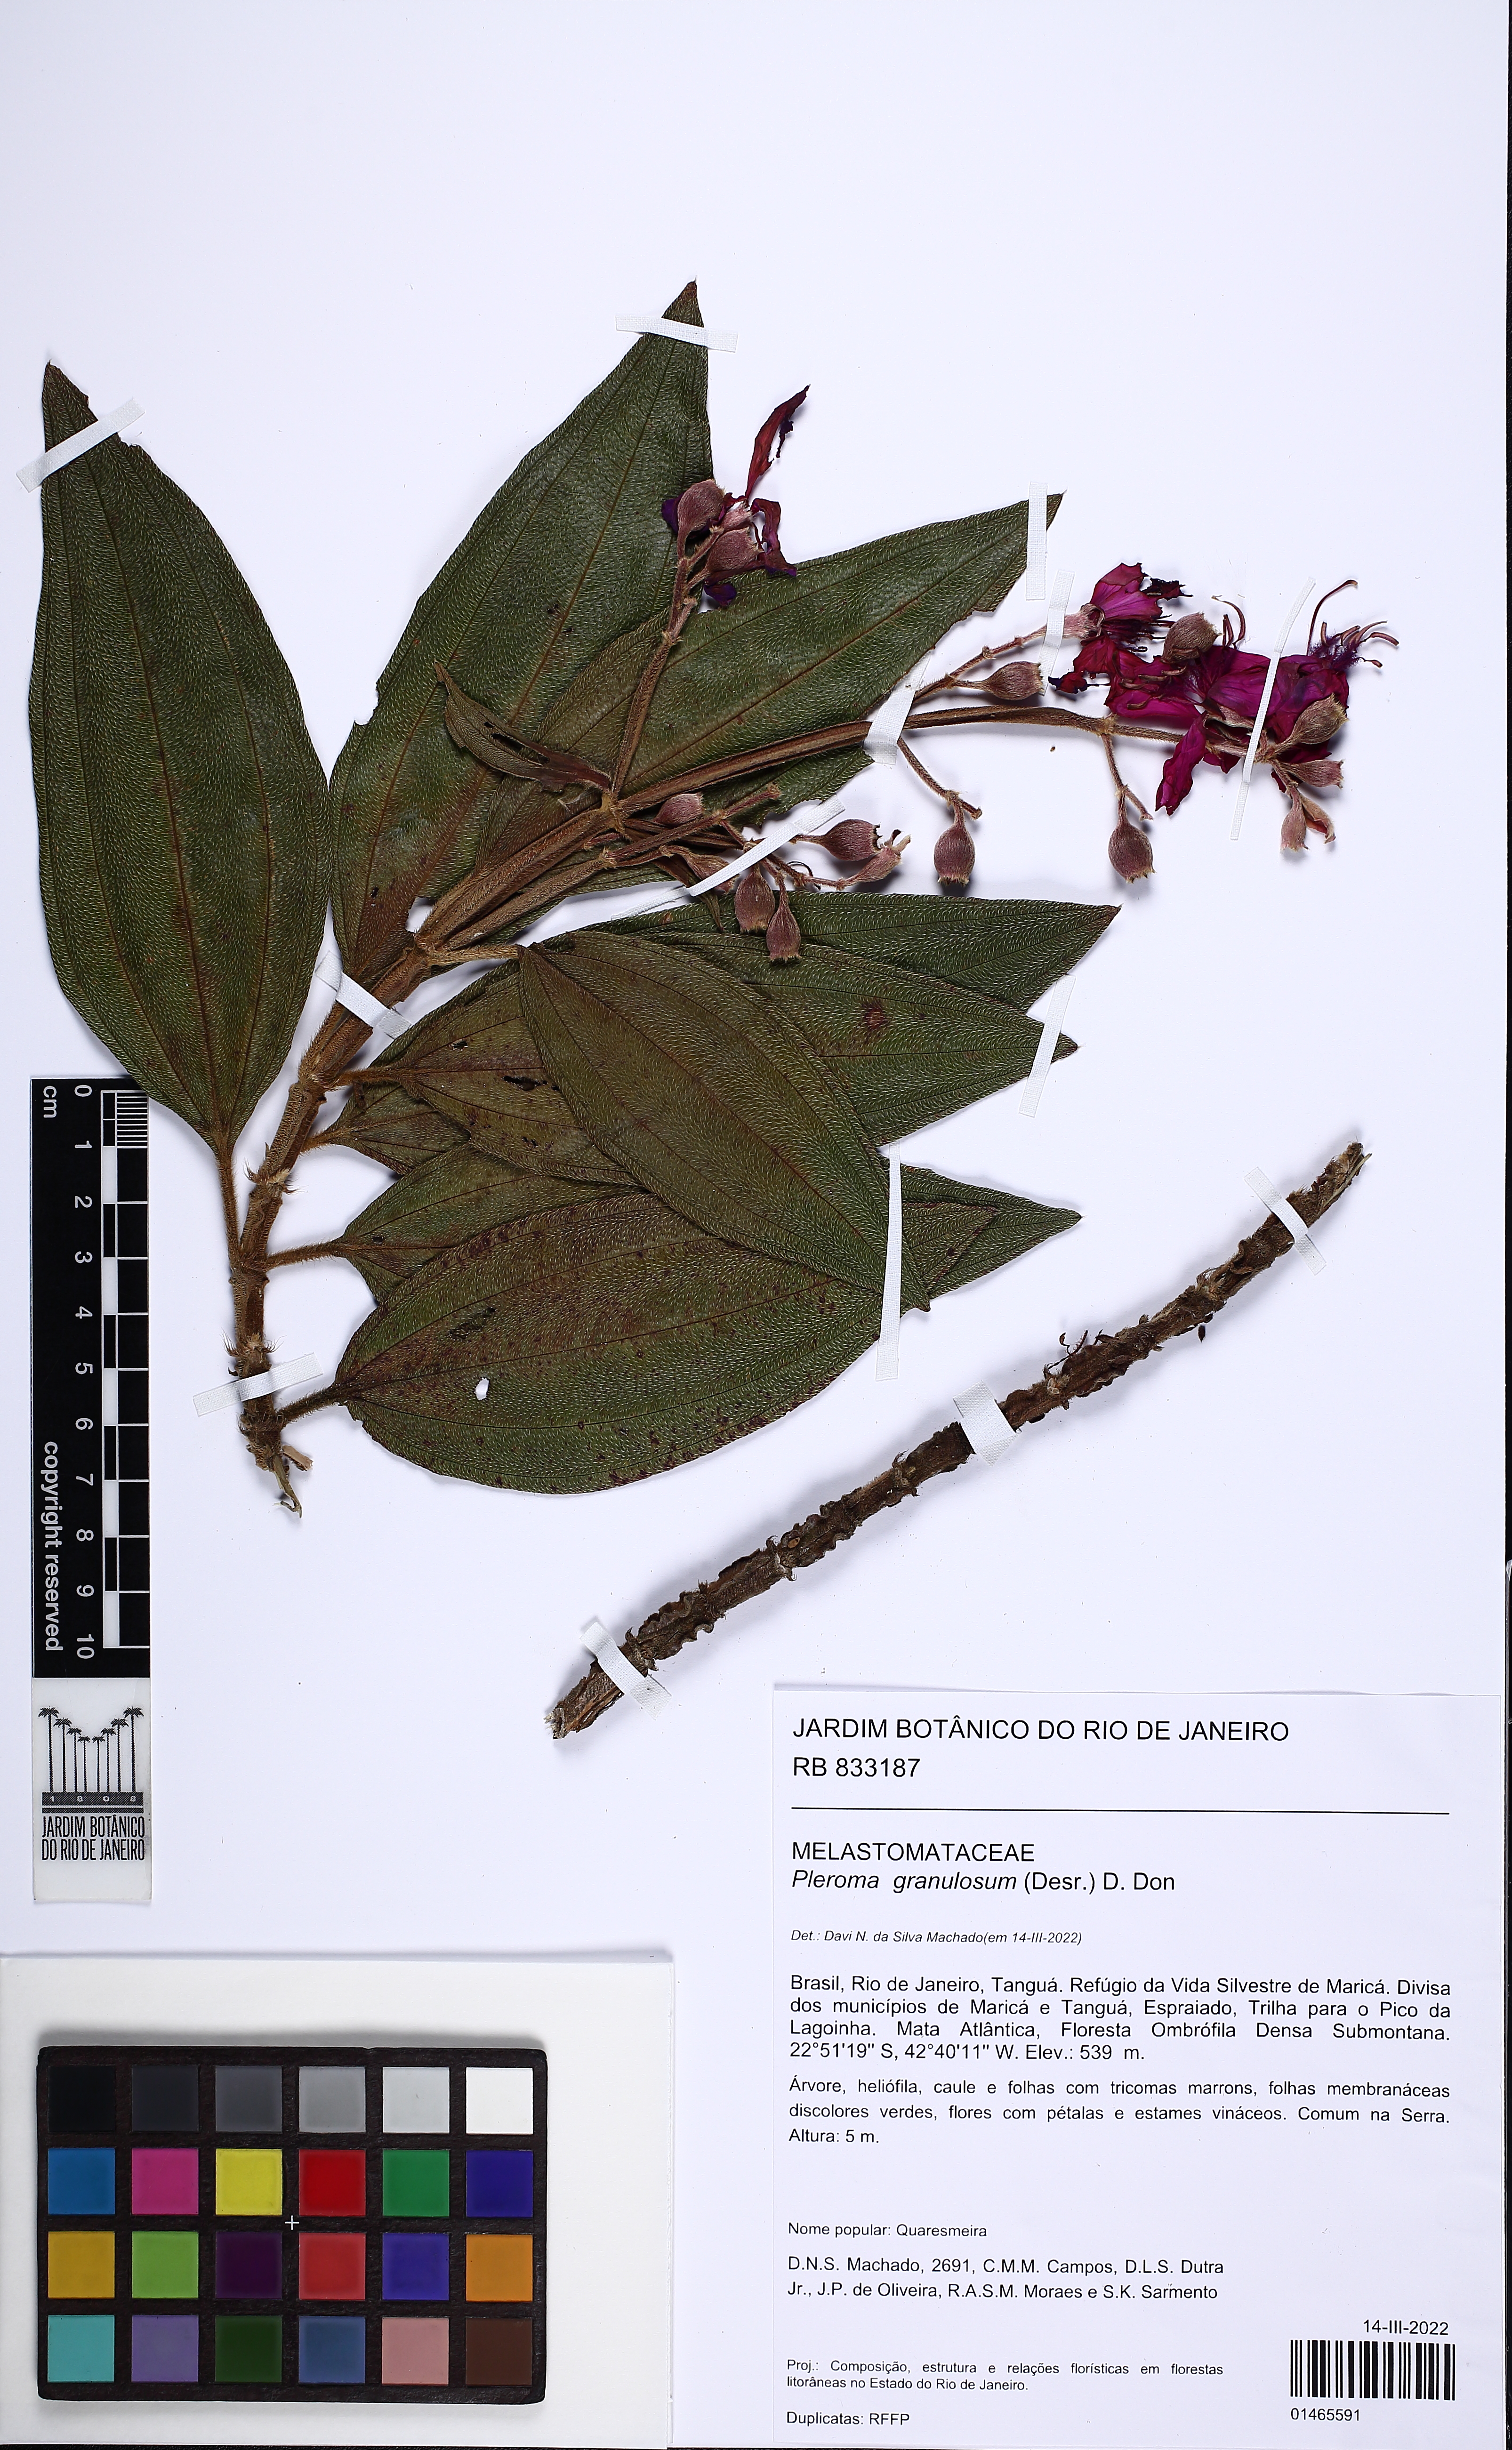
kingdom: Plantae
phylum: Tracheophyta
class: Magnoliopsida
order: Myrtales
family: Melastomataceae
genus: Pleroma
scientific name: Pleroma granulosum
